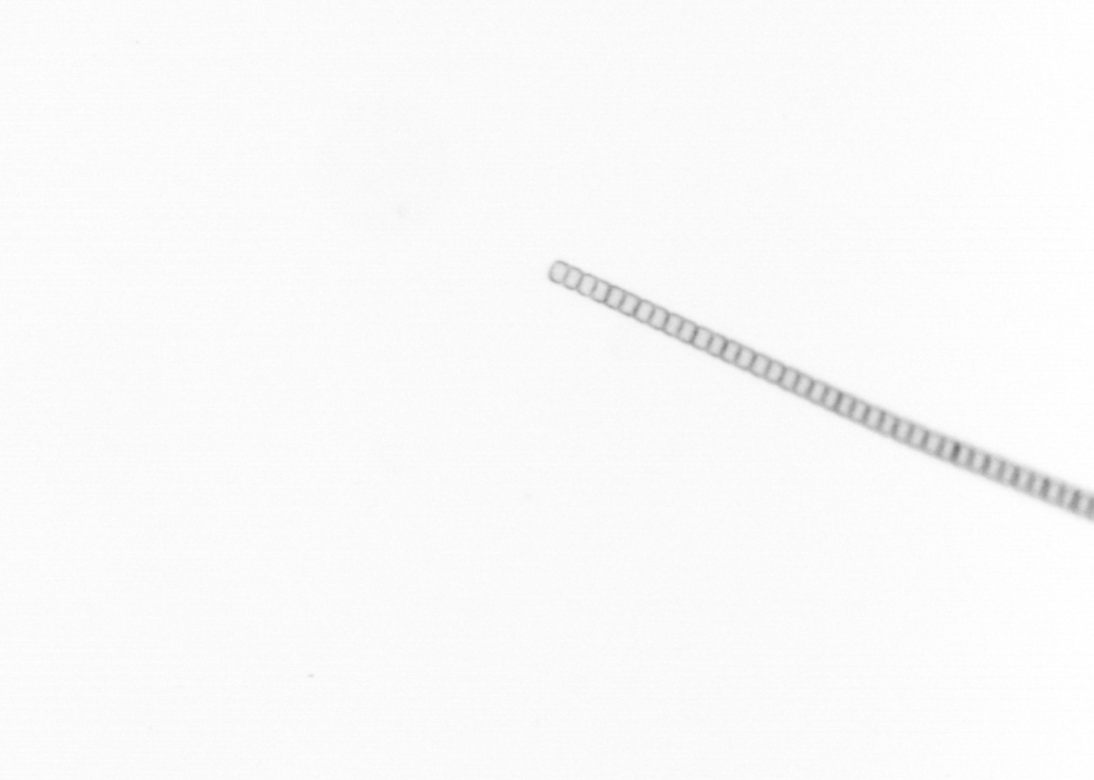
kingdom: Chromista
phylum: Ochrophyta
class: Bacillariophyceae
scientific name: Bacillariophyceae
